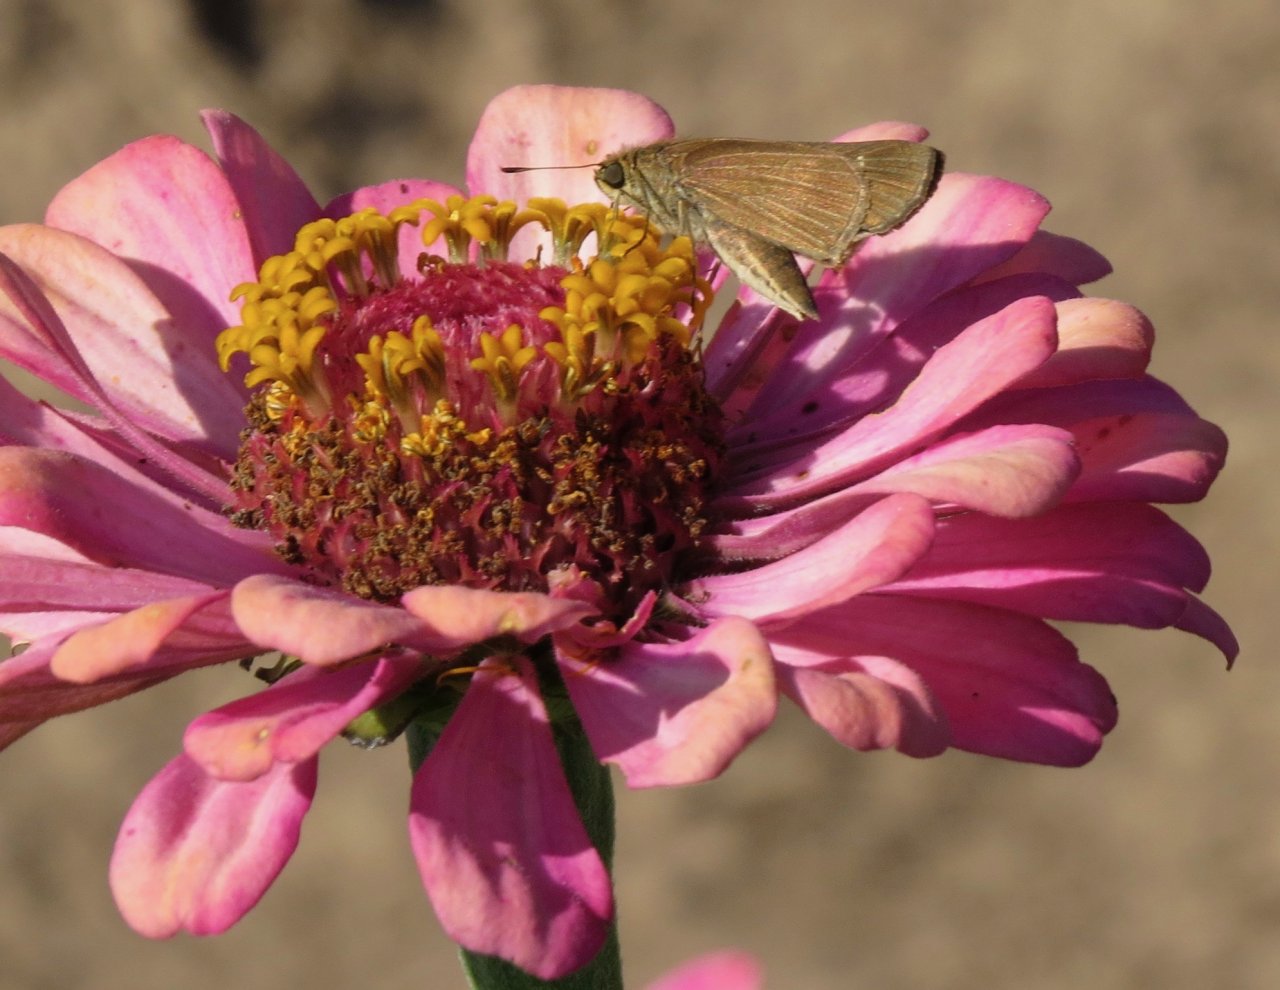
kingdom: Animalia
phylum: Arthropoda
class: Insecta
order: Lepidoptera
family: Hesperiidae
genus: Panoquina
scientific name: Panoquina ocola
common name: Ocola Skipper
